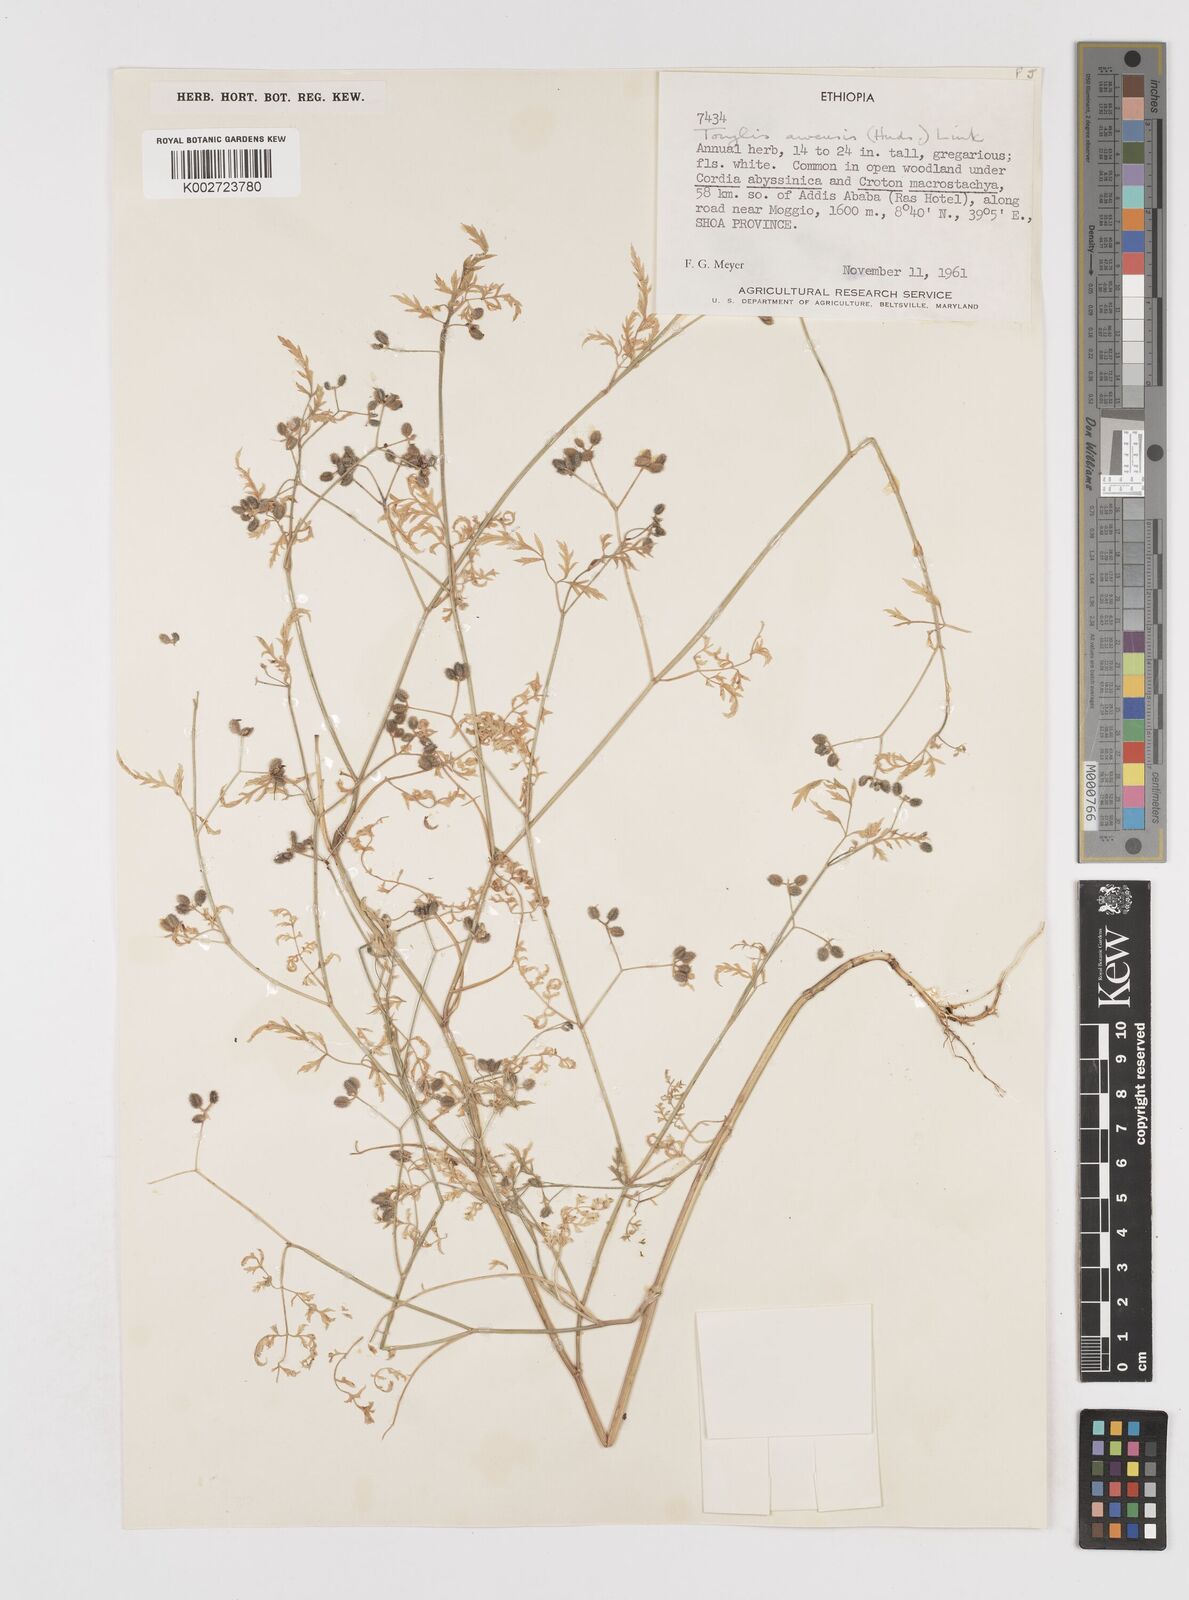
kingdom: Plantae
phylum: Tracheophyta
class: Magnoliopsida
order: Apiales
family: Apiaceae
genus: Torilis
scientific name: Torilis arvensis
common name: Spreading hedge-parsley
